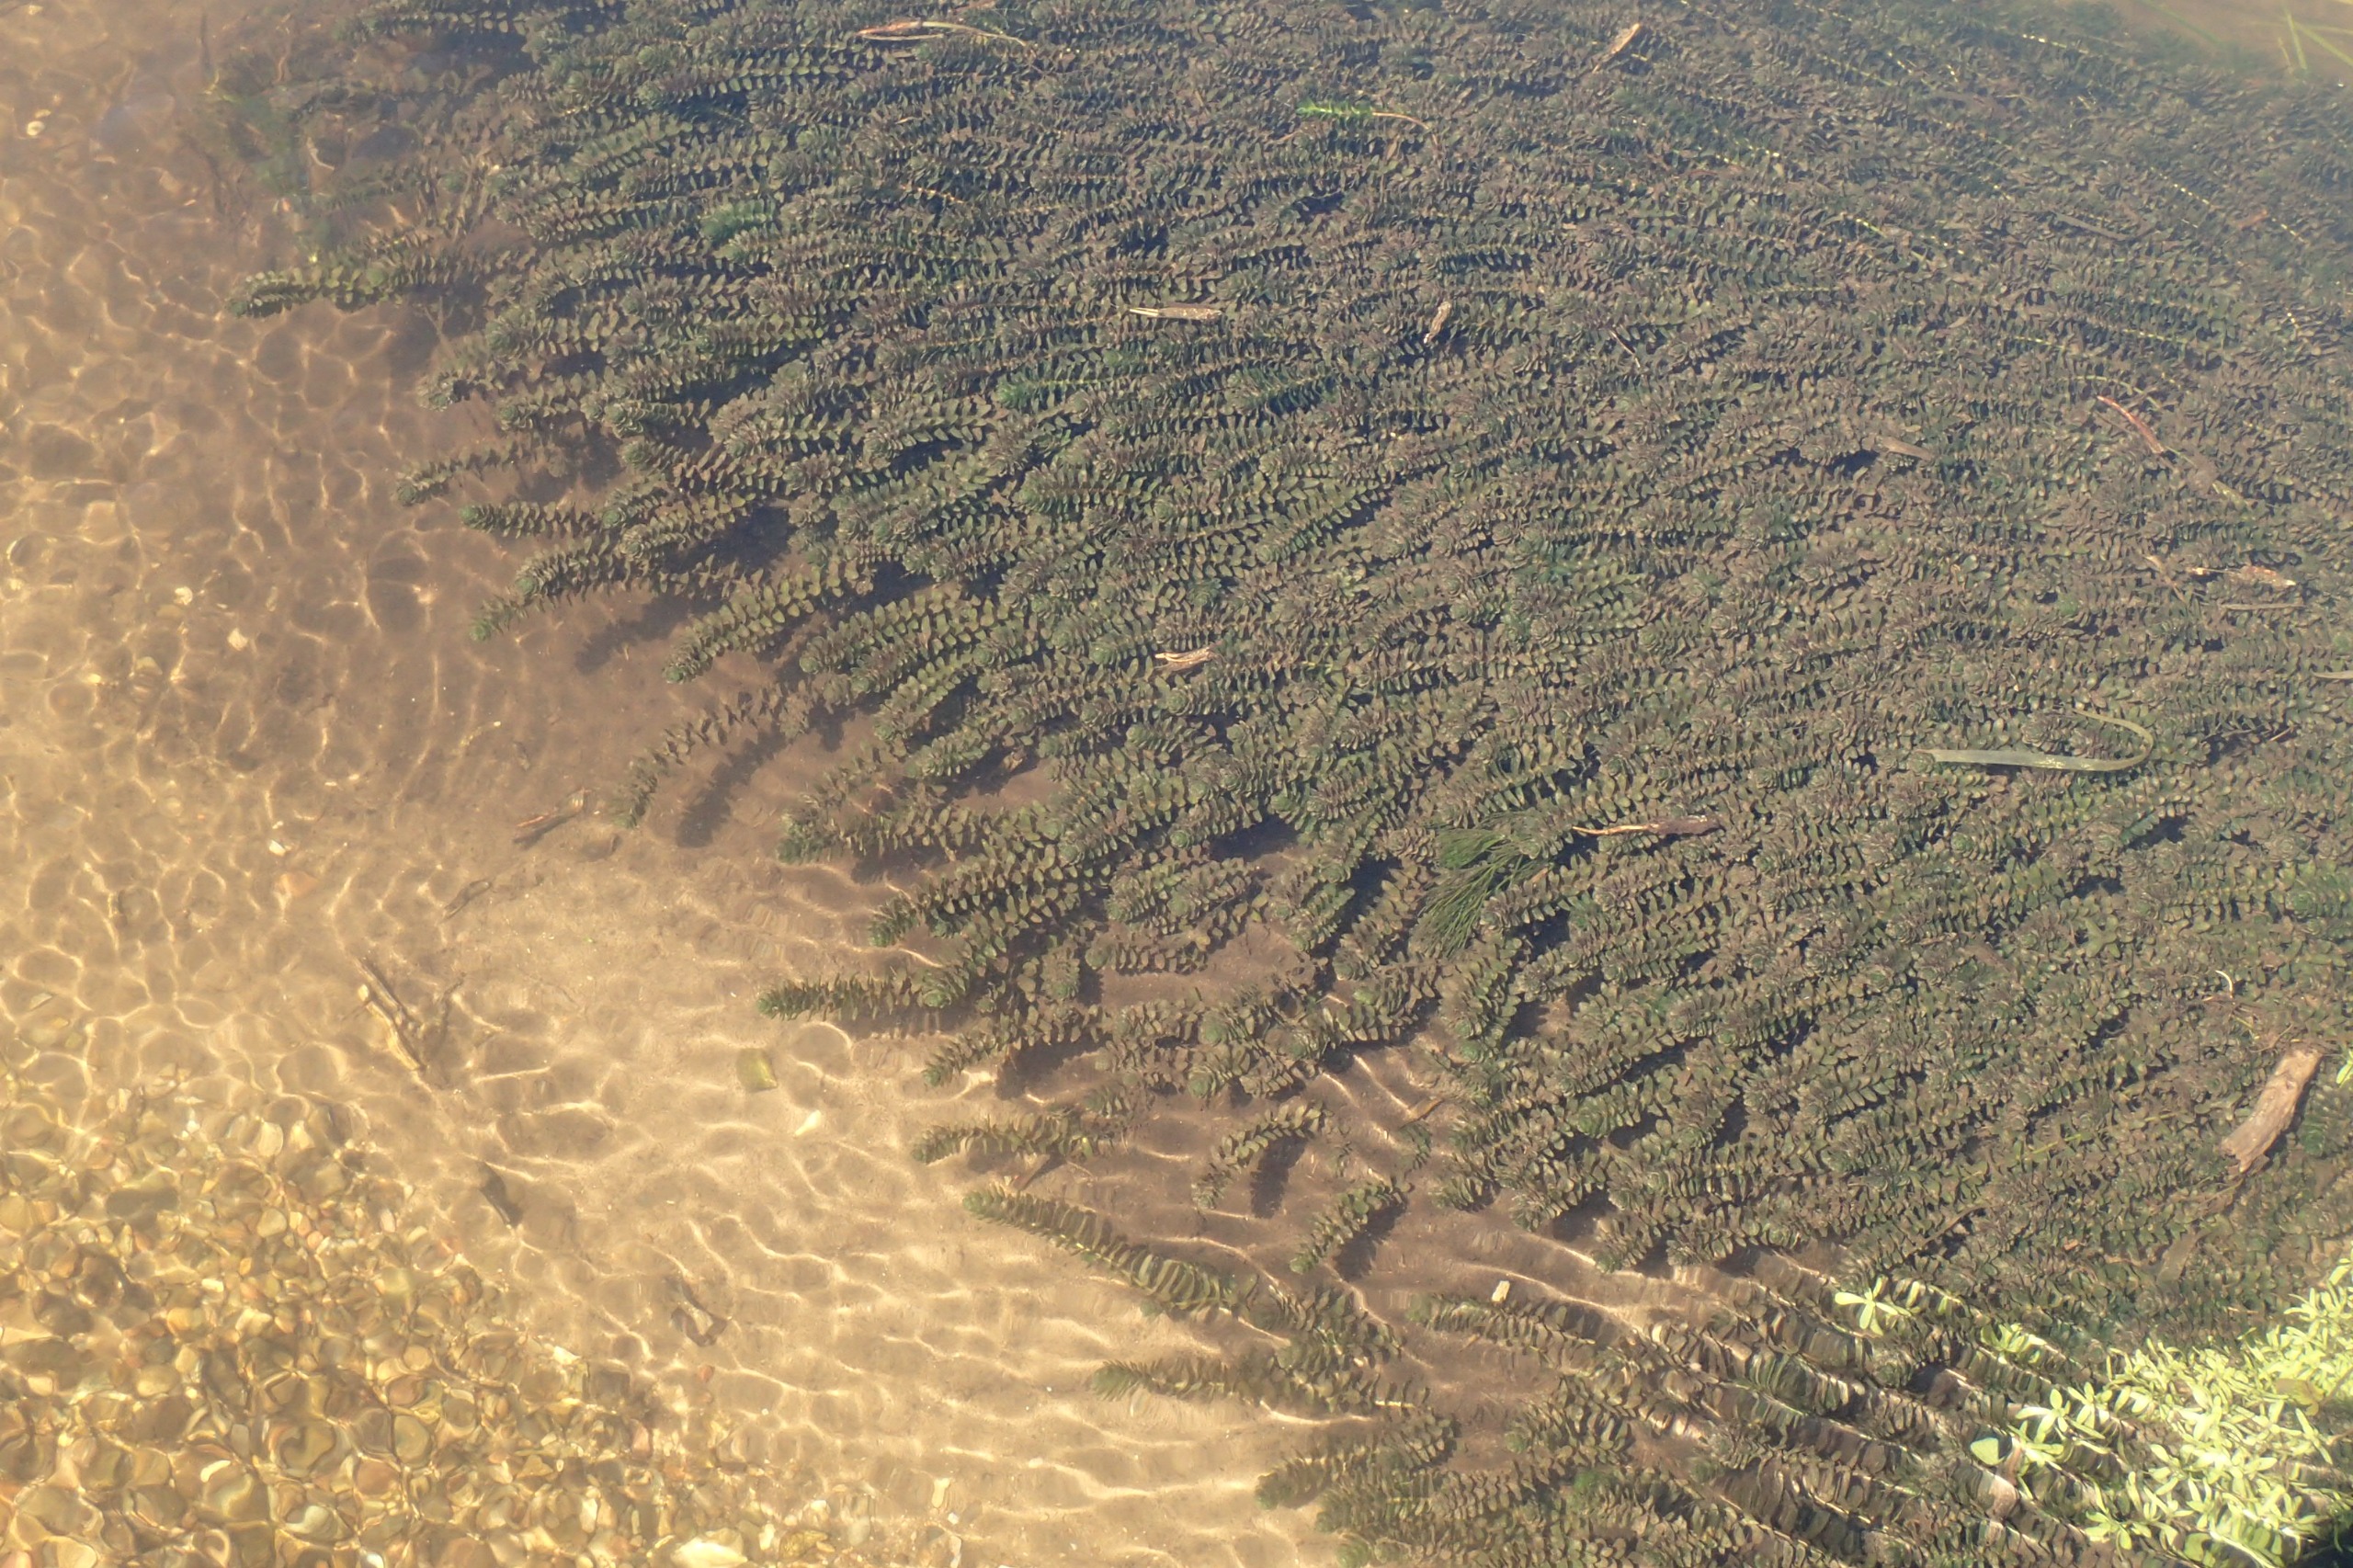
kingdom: Plantae
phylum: Tracheophyta
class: Liliopsida
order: Alismatales
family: Hydrocharitaceae
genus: Elodea
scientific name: Elodea canadensis
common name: Vandpest
